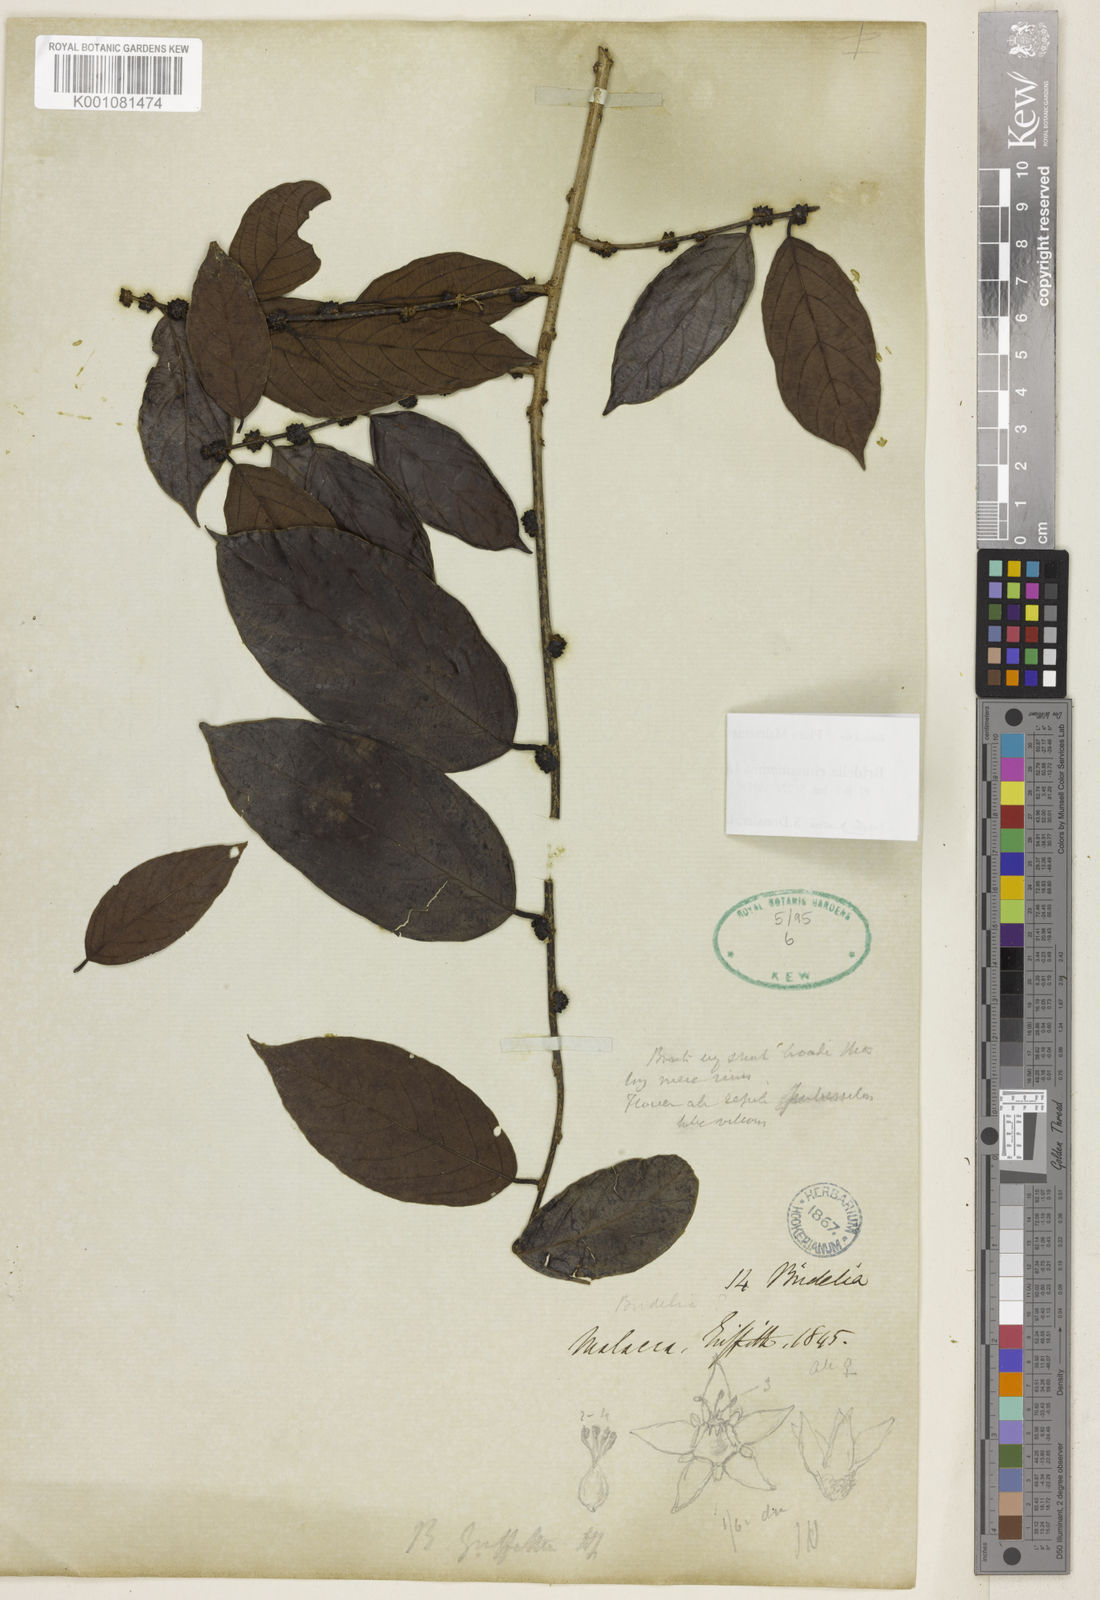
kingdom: Plantae
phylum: Tracheophyta
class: Magnoliopsida
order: Malpighiales
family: Phyllanthaceae
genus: Bridelia
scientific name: Bridelia cinnamomea
